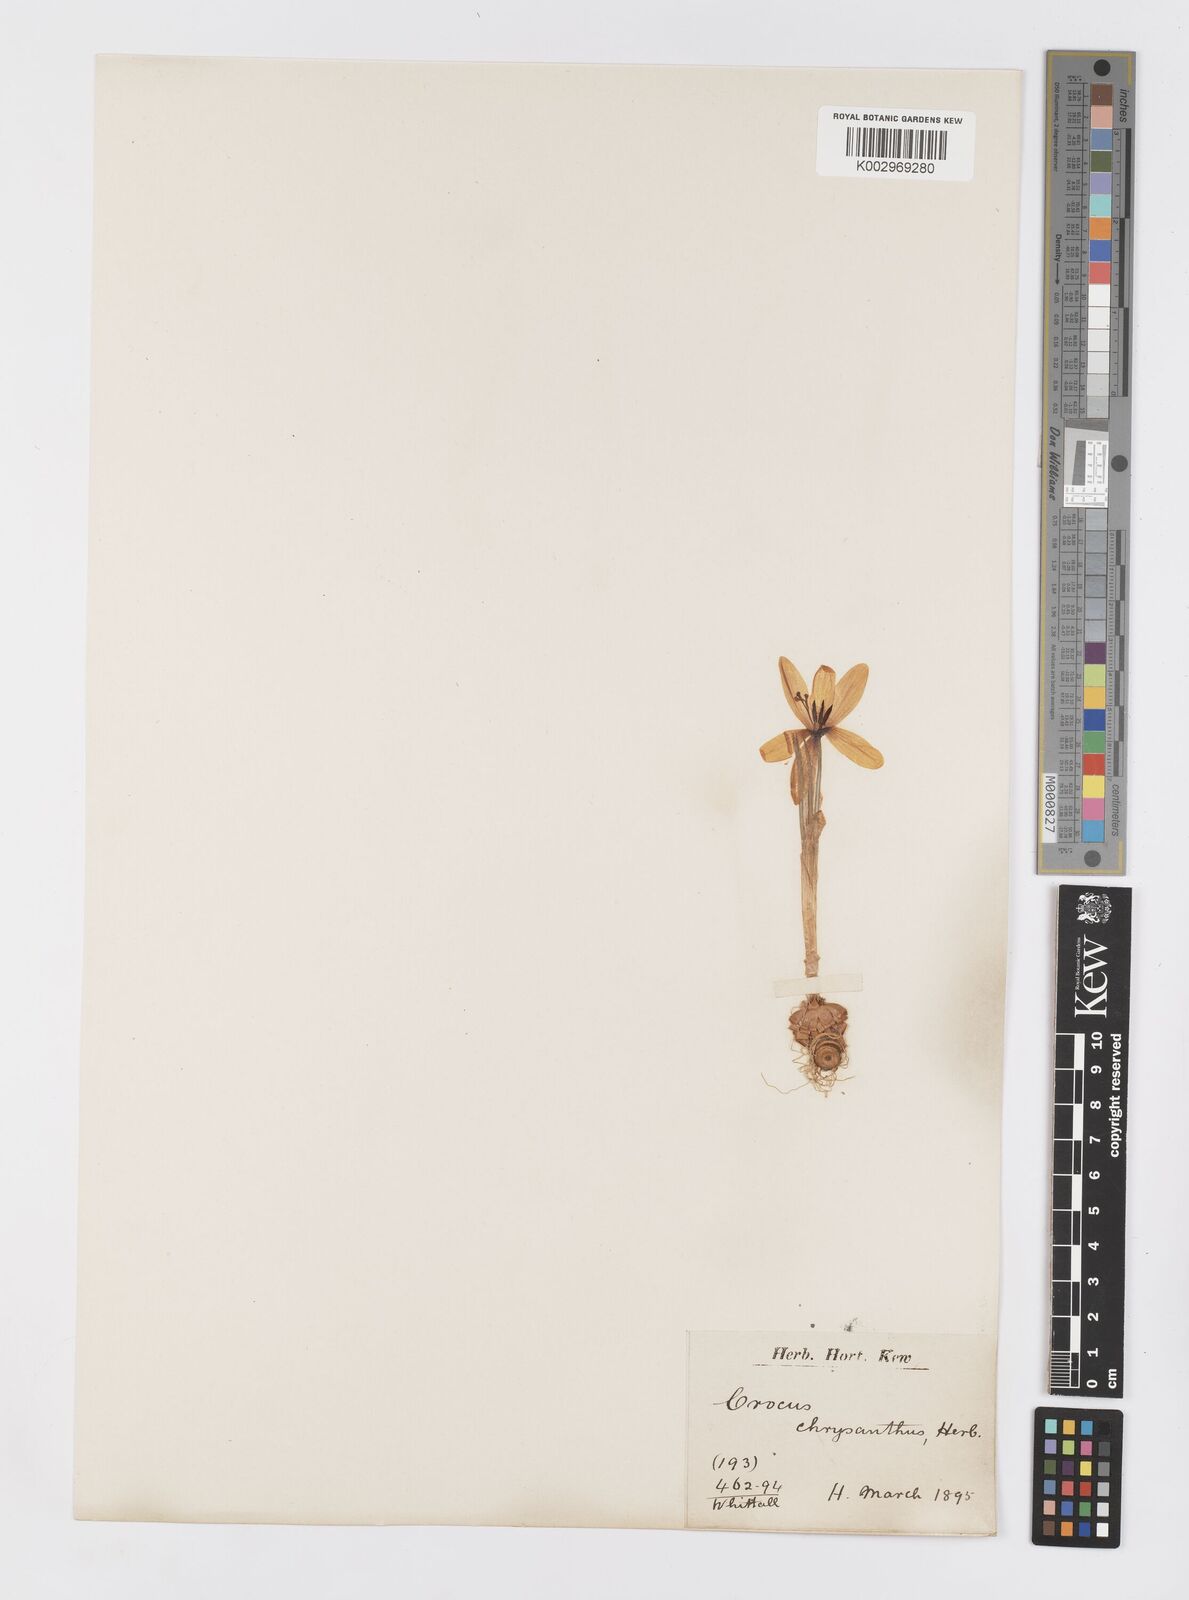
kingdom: Plantae
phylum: Tracheophyta
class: Liliopsida
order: Asparagales
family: Iridaceae
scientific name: Iridaceae
